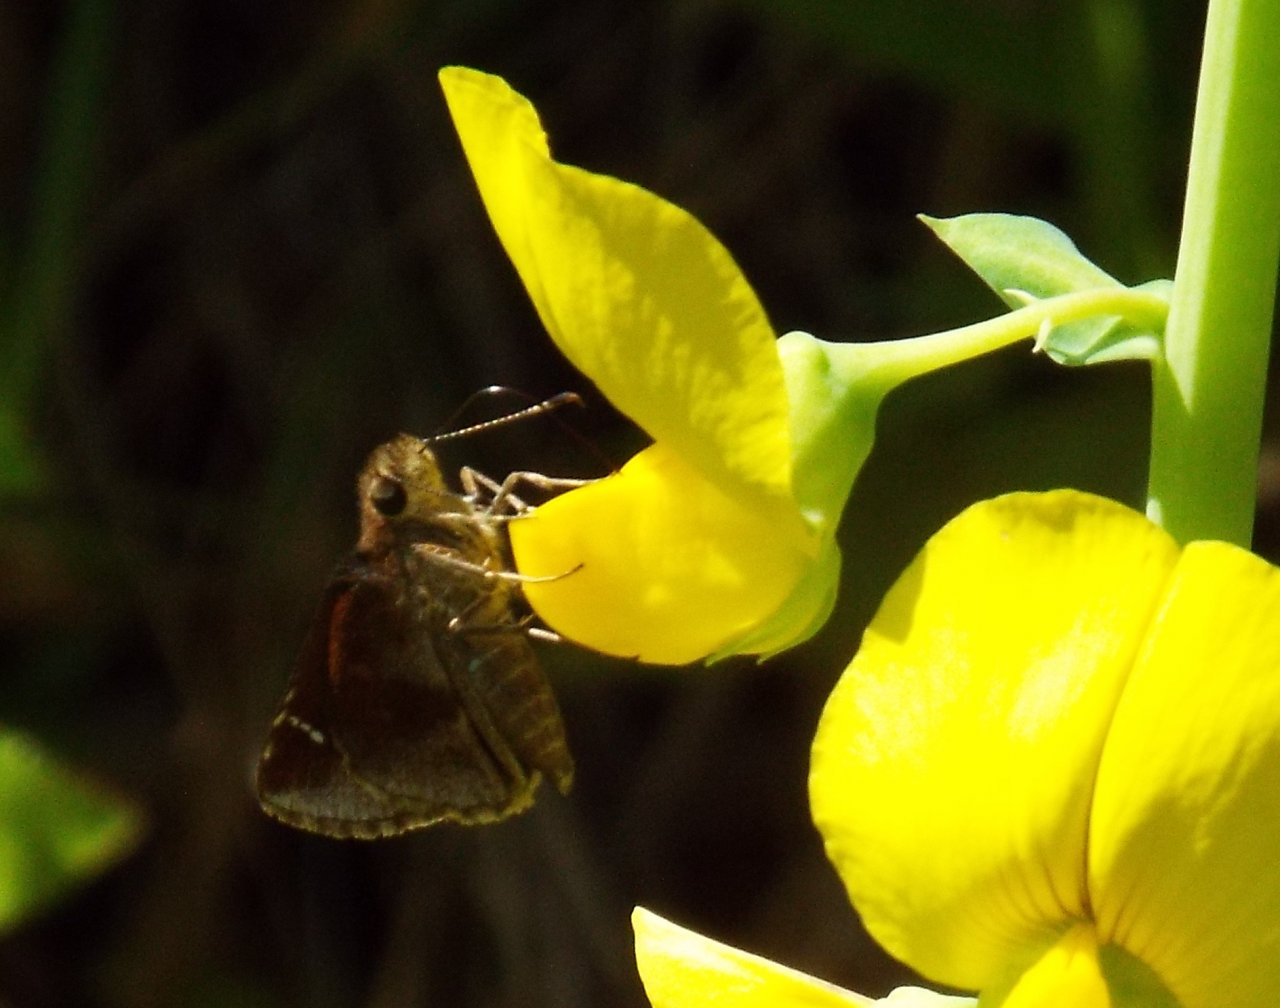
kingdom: Animalia
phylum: Arthropoda
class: Insecta
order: Lepidoptera
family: Hesperiidae
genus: Lerema
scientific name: Lerema accius
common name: Clouded Skipper
